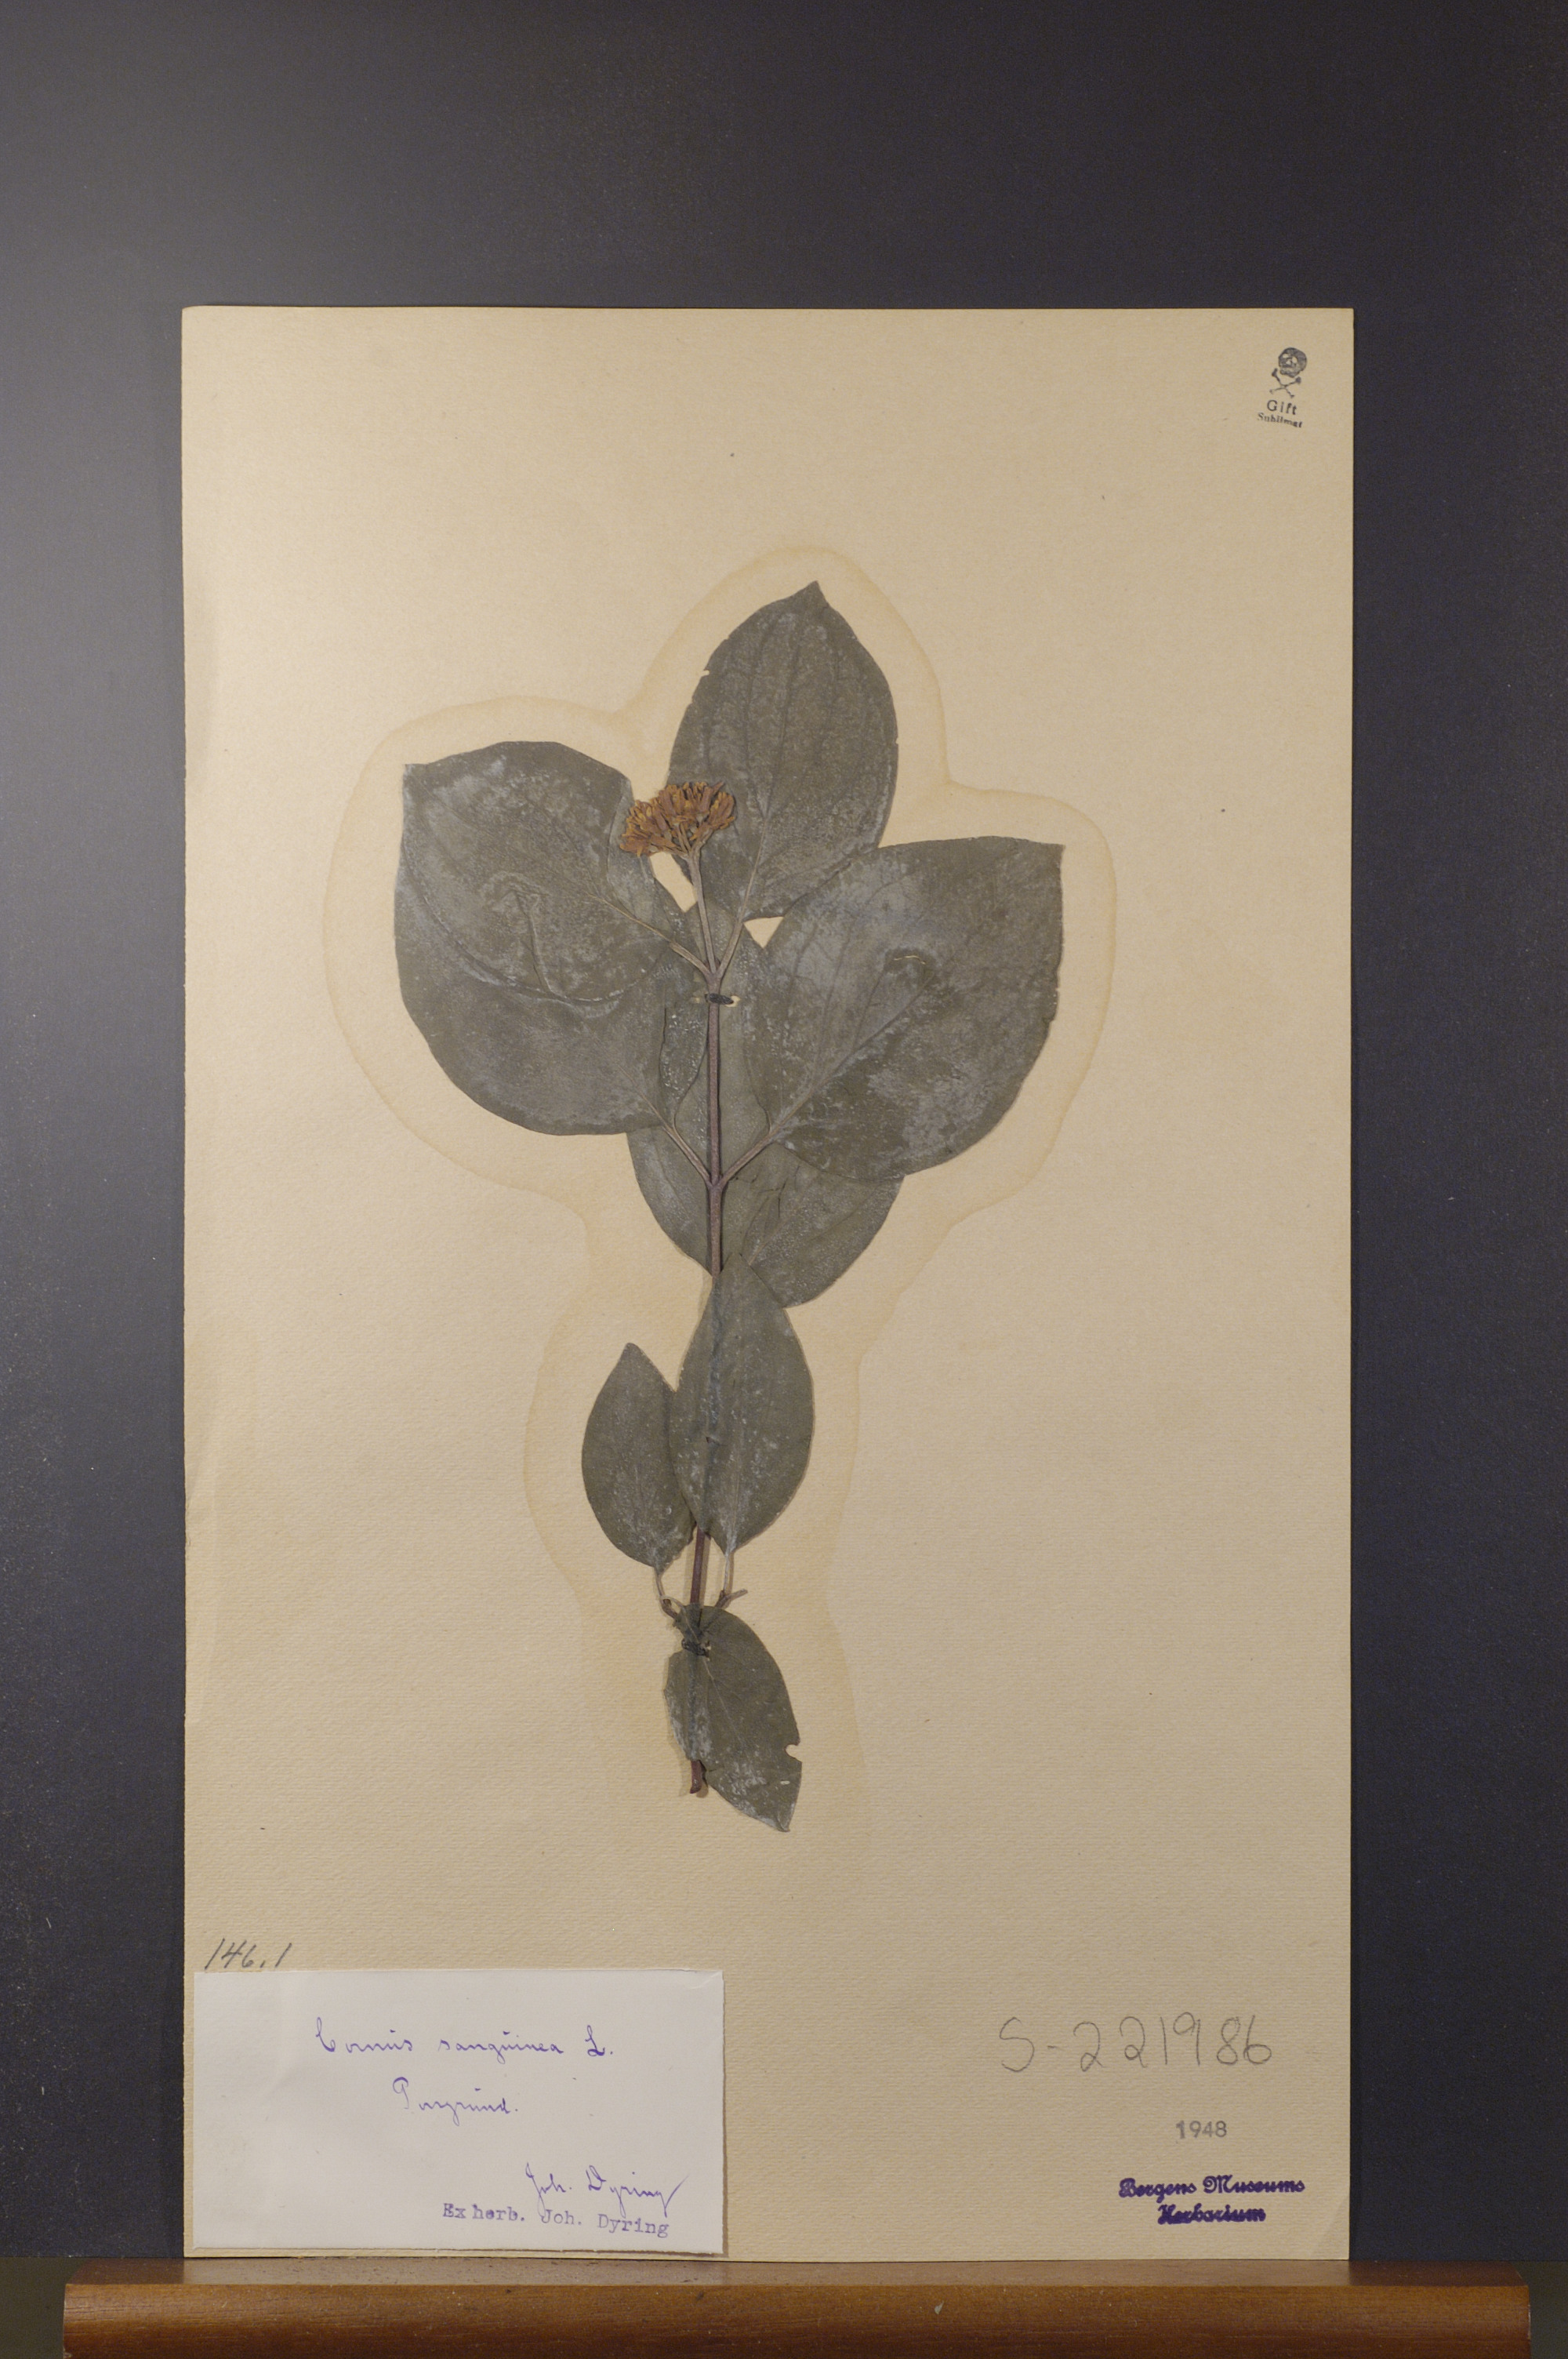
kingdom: Plantae
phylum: Tracheophyta
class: Magnoliopsida
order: Cornales
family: Cornaceae
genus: Cornus
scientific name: Cornus sanguinea
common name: Dogwood
